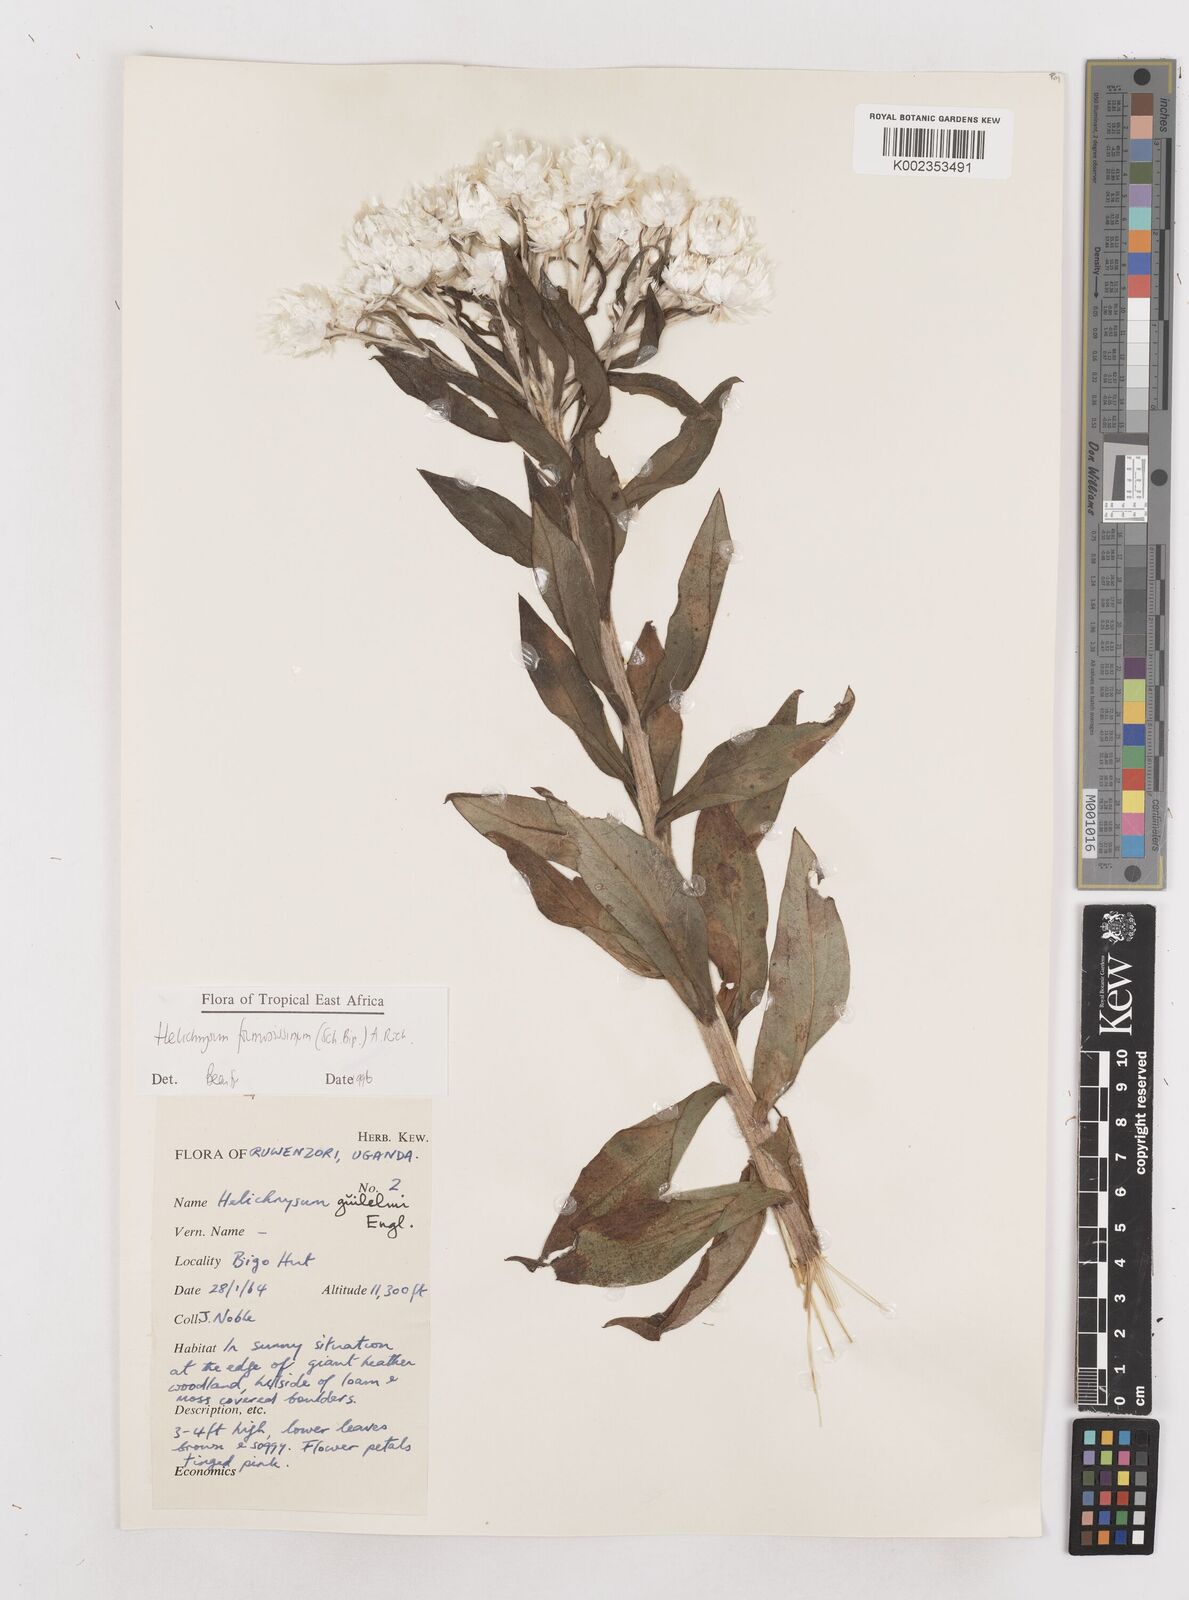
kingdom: Plantae
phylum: Tracheophyta
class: Magnoliopsida
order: Asterales
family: Asteraceae
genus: Helichrysum
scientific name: Helichrysum formosissimum
